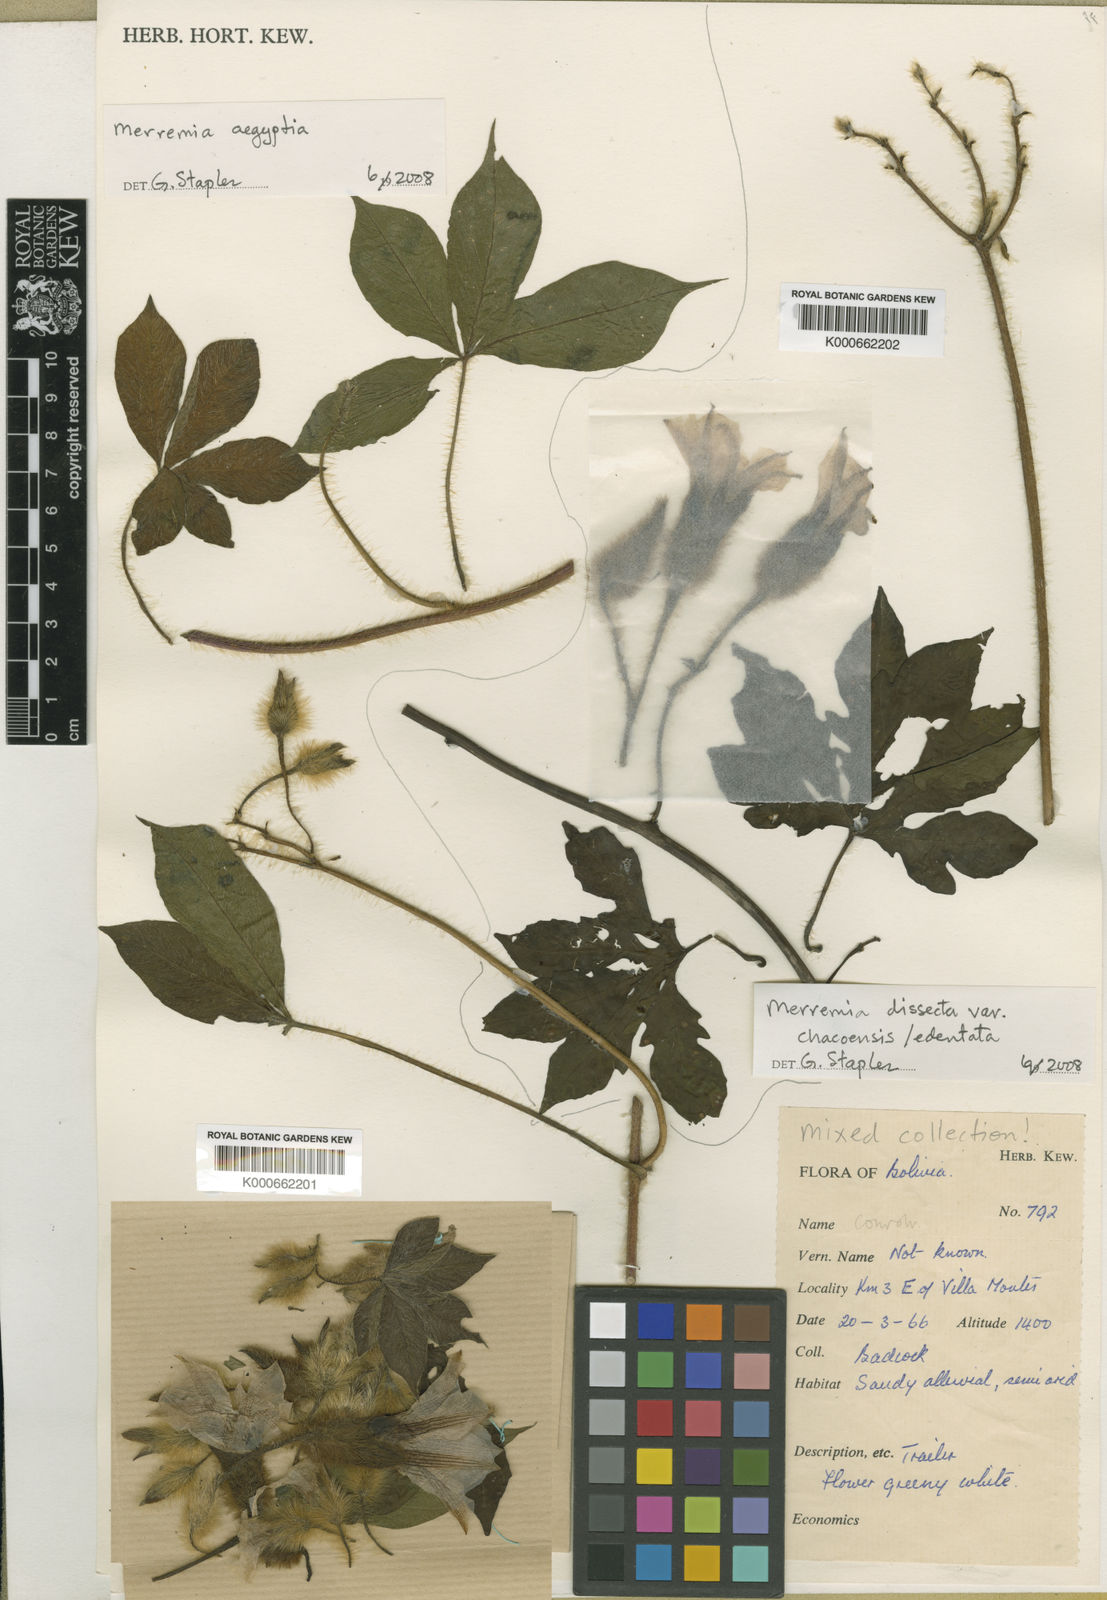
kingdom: Plantae
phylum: Tracheophyta
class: Magnoliopsida
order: Solanales
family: Convolvulaceae
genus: Distimake
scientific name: Distimake aegyptius
